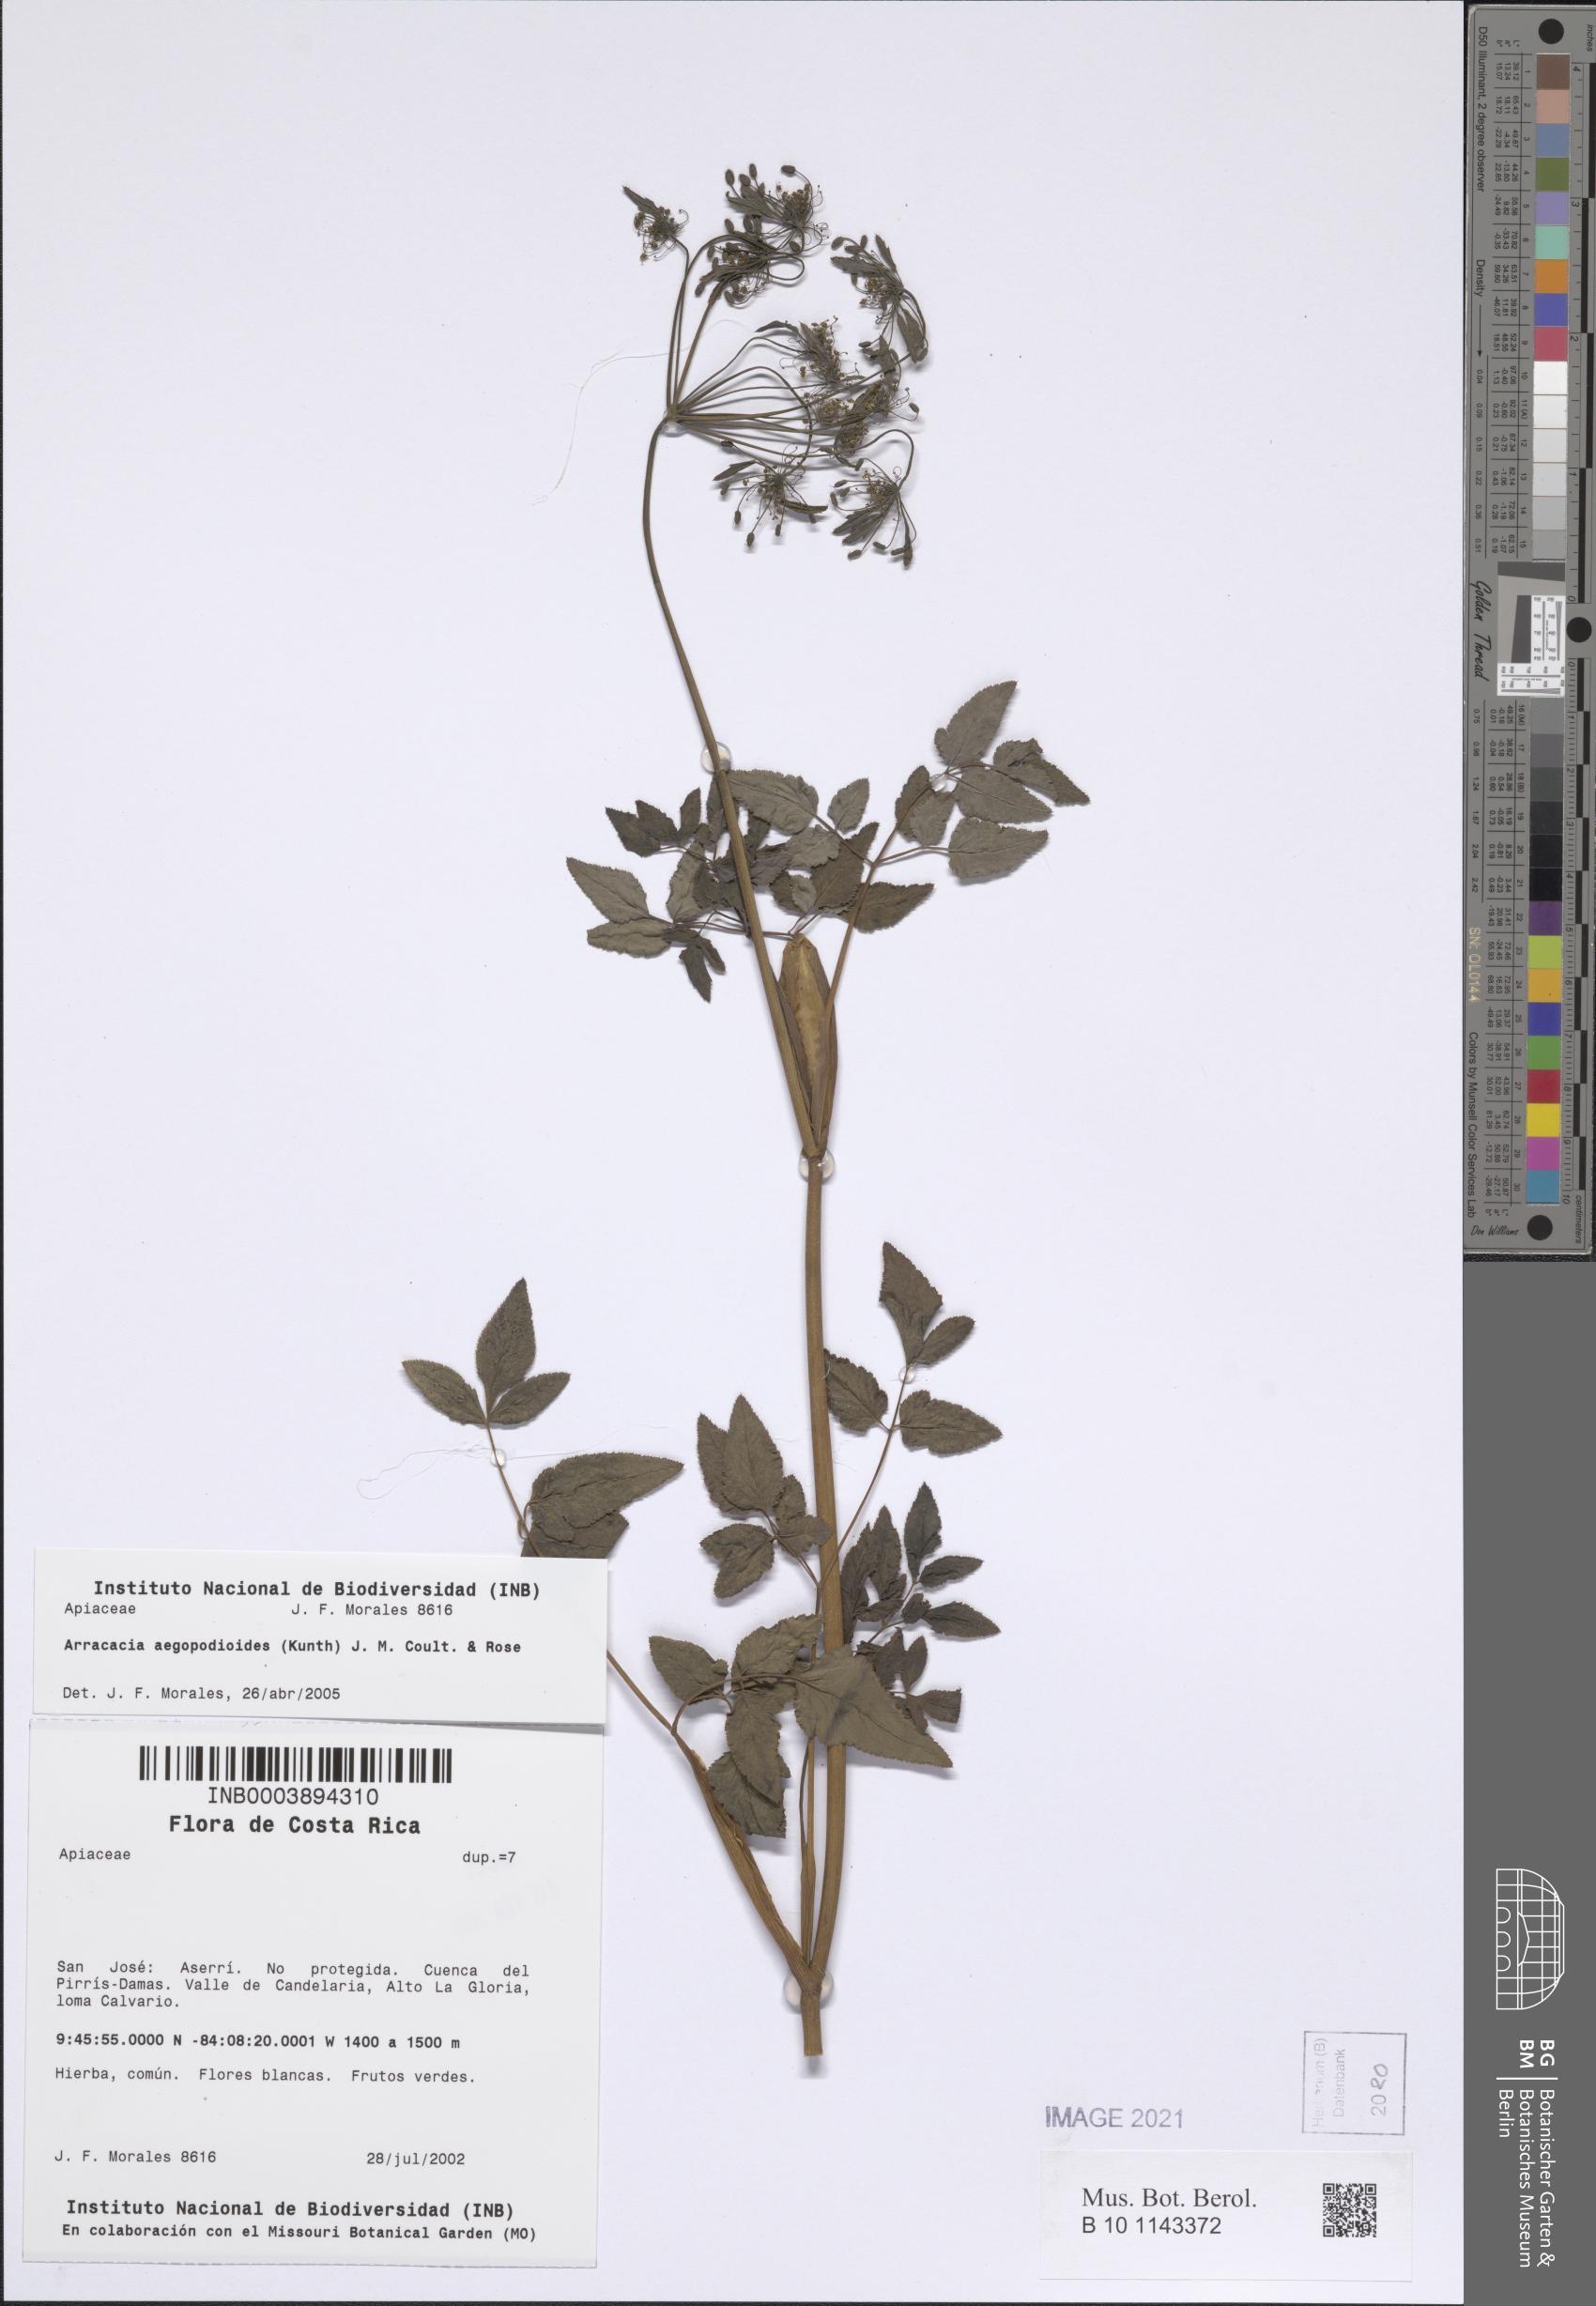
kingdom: Plantae
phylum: Tracheophyta
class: Magnoliopsida
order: Apiales
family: Apiaceae
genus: Arracacia
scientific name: Arracacia aegopodioides
